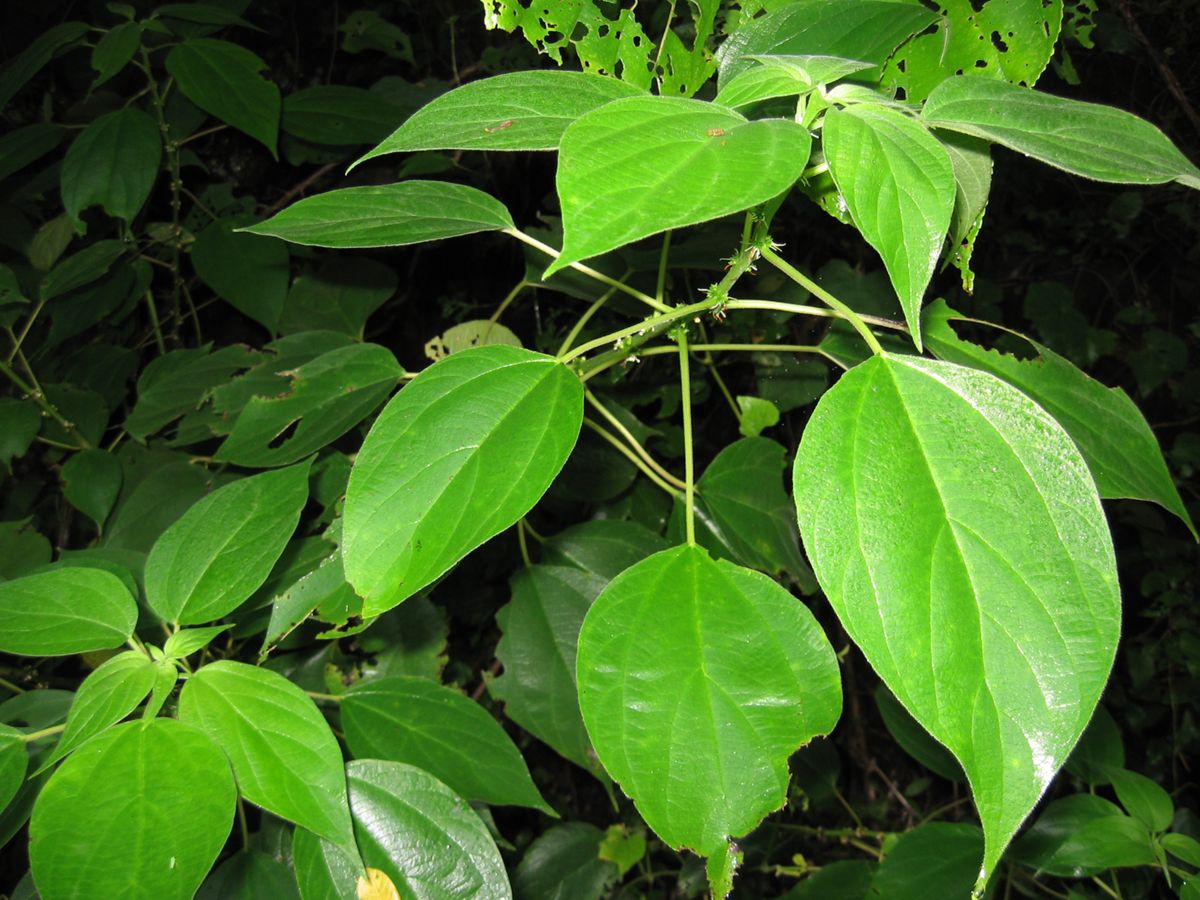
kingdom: Plantae
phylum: Tracheophyta
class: Magnoliopsida
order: Rosales
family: Urticaceae
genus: Pouzolzia
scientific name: Pouzolzia occidentalis
